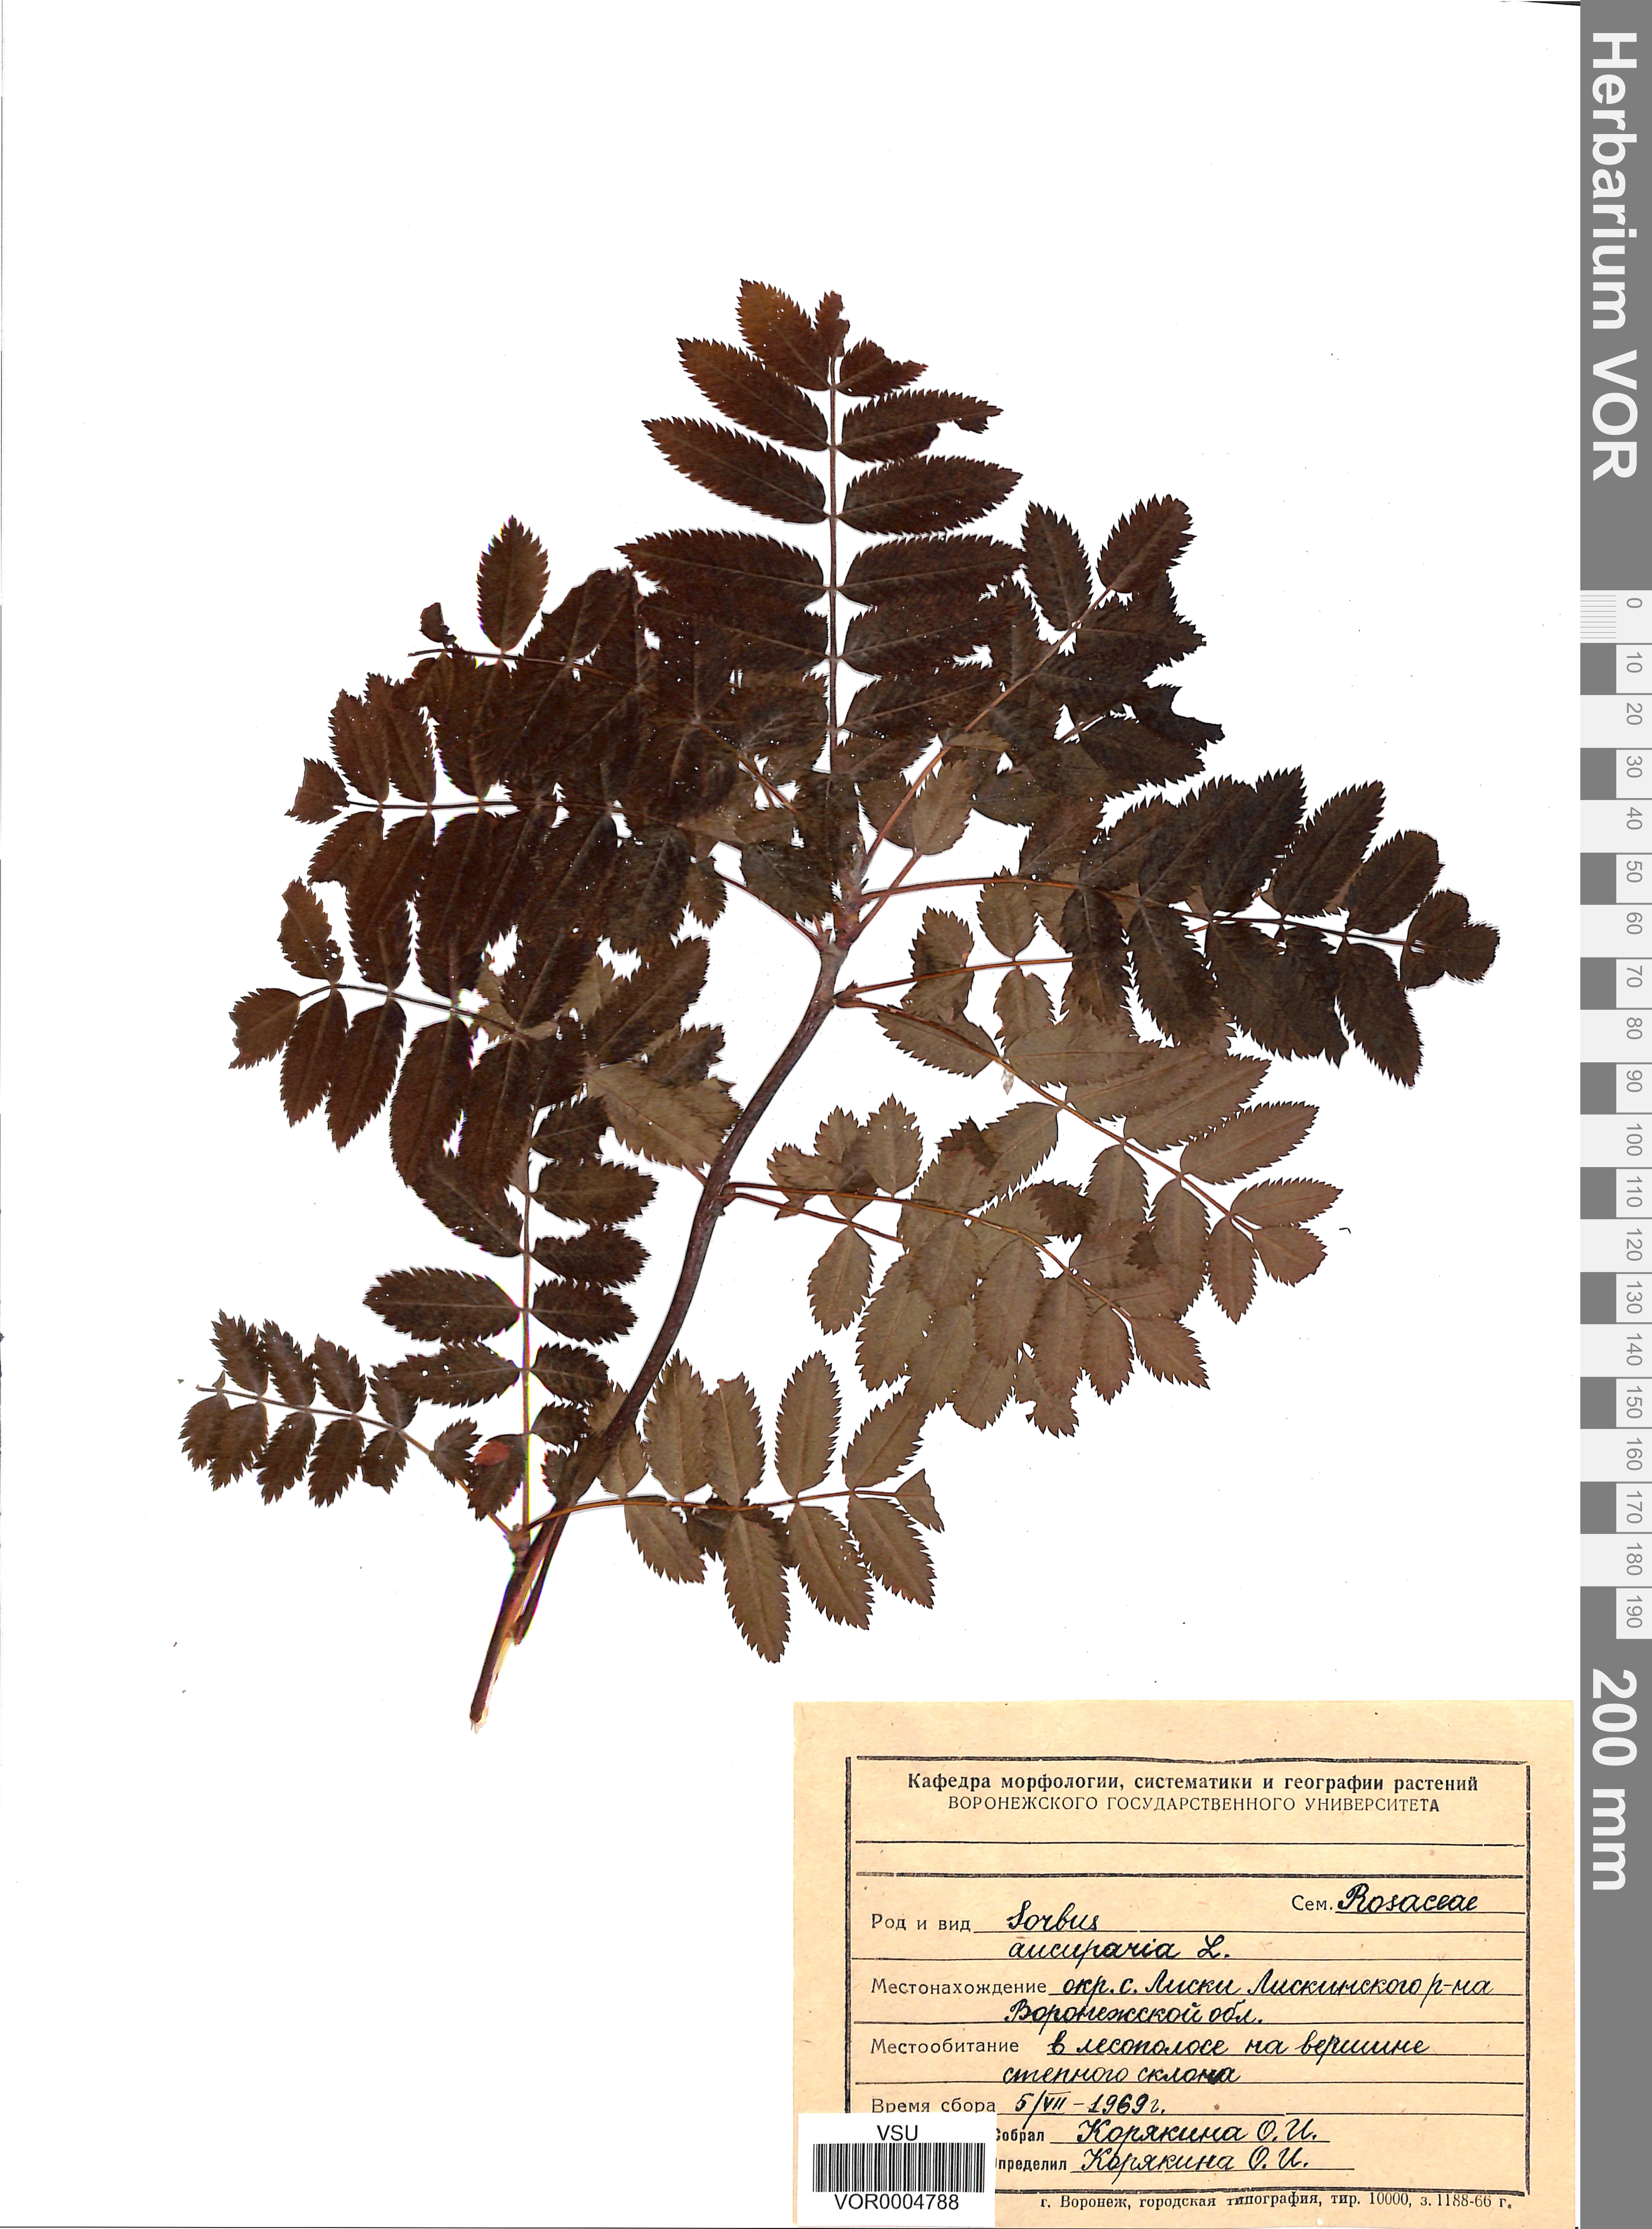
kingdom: Plantae
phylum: Tracheophyta
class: Magnoliopsida
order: Rosales
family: Rosaceae
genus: Sorbus
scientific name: Sorbus aucuparia
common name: Rowan
